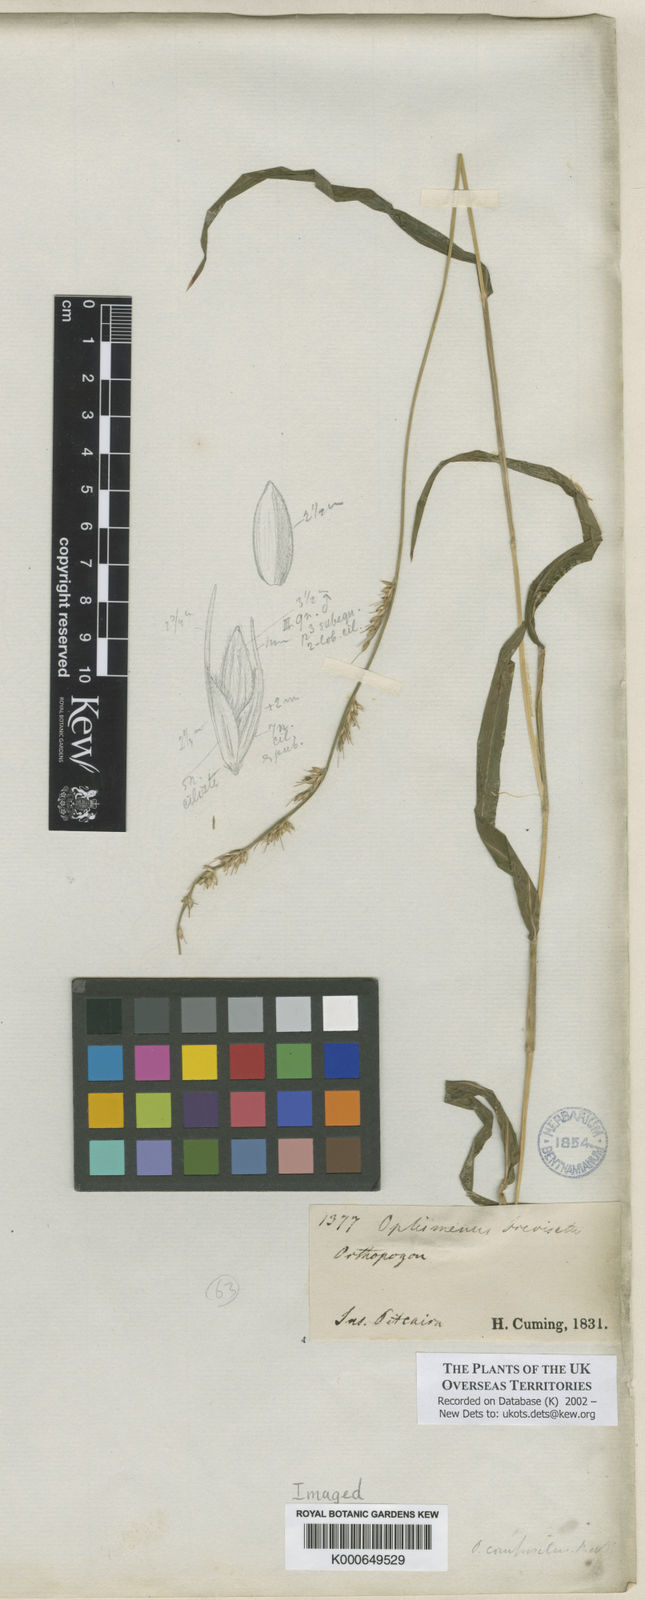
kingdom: Plantae
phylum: Tracheophyta
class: Liliopsida
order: Poales
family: Poaceae
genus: Oplismenus
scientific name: Oplismenus hirtellus
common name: Basketgrass
